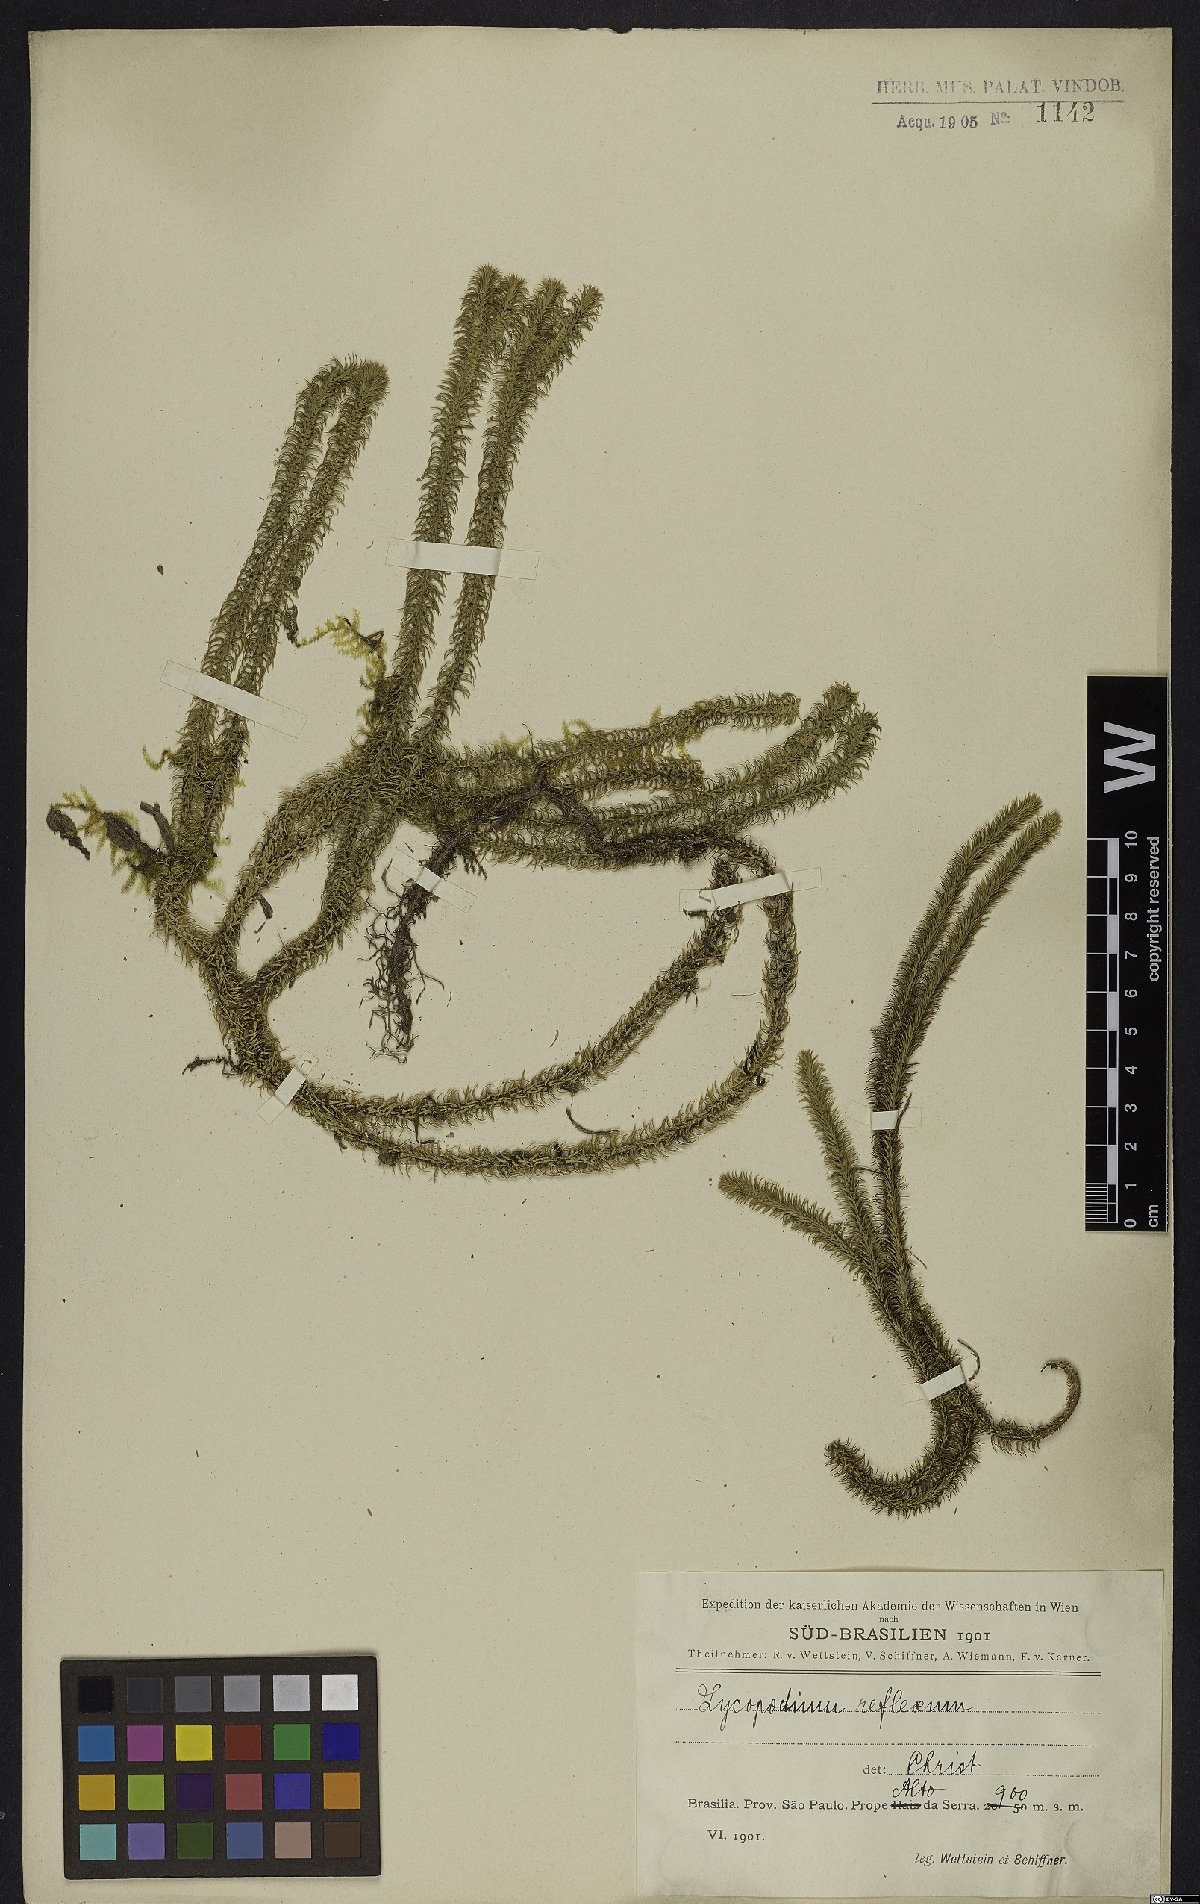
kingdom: Plantae
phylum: Tracheophyta
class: Lycopodiopsida
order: Lycopodiales
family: Lycopodiaceae
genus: Phlegmariurus
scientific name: Phlegmariurus reflexus
